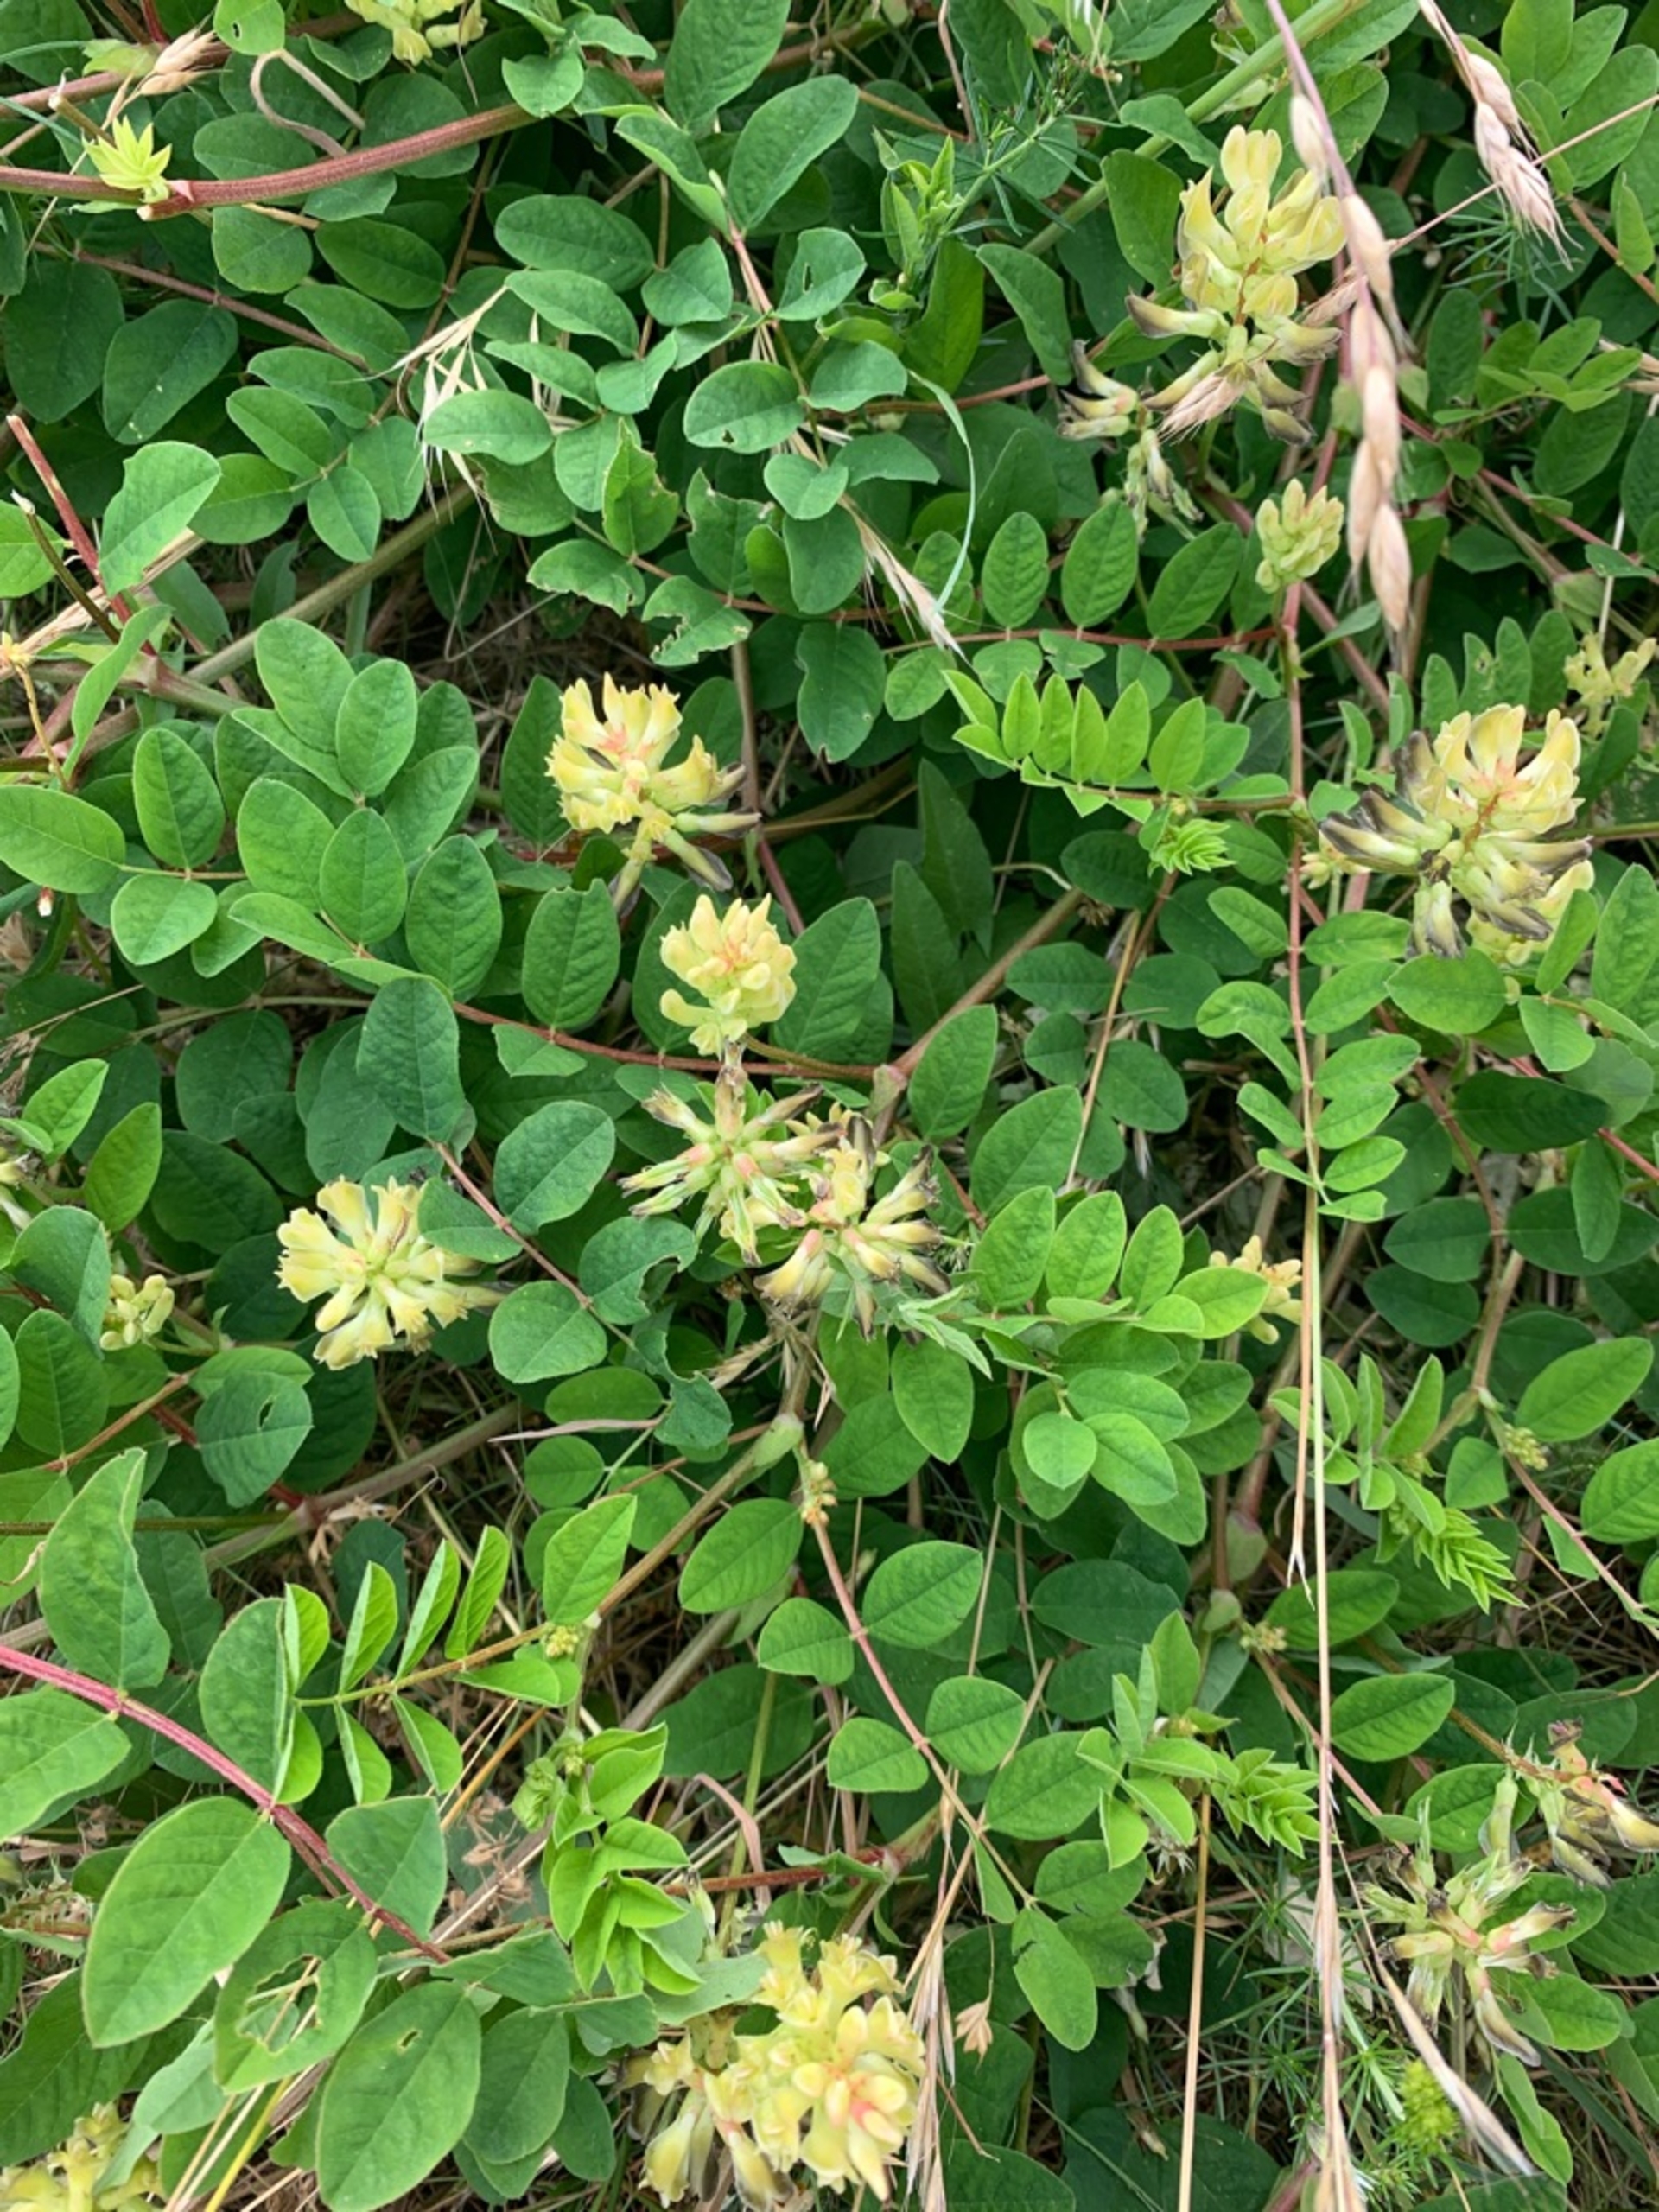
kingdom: Plantae
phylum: Tracheophyta
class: Magnoliopsida
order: Fabales
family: Fabaceae
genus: Astragalus
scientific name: Astragalus glycyphyllos
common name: Sød astragel
